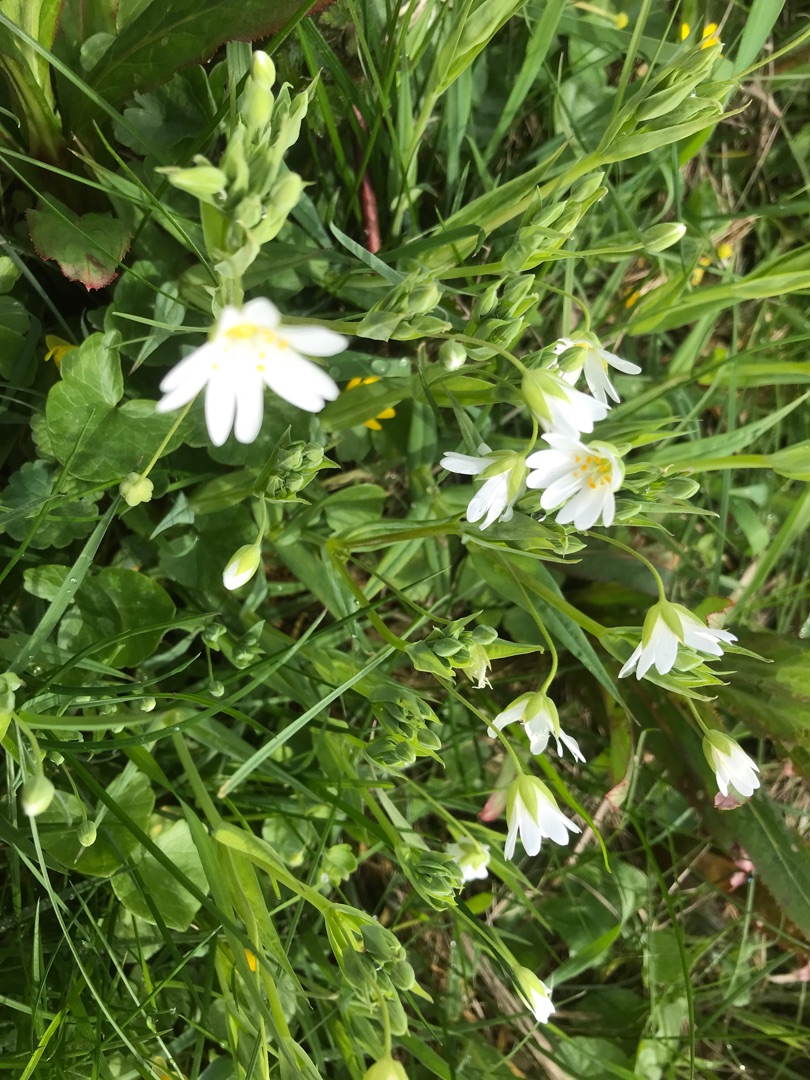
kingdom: Plantae
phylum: Tracheophyta
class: Magnoliopsida
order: Caryophyllales
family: Caryophyllaceae
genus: Rabelera
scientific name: Rabelera holostea
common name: Stor fladstjerne
